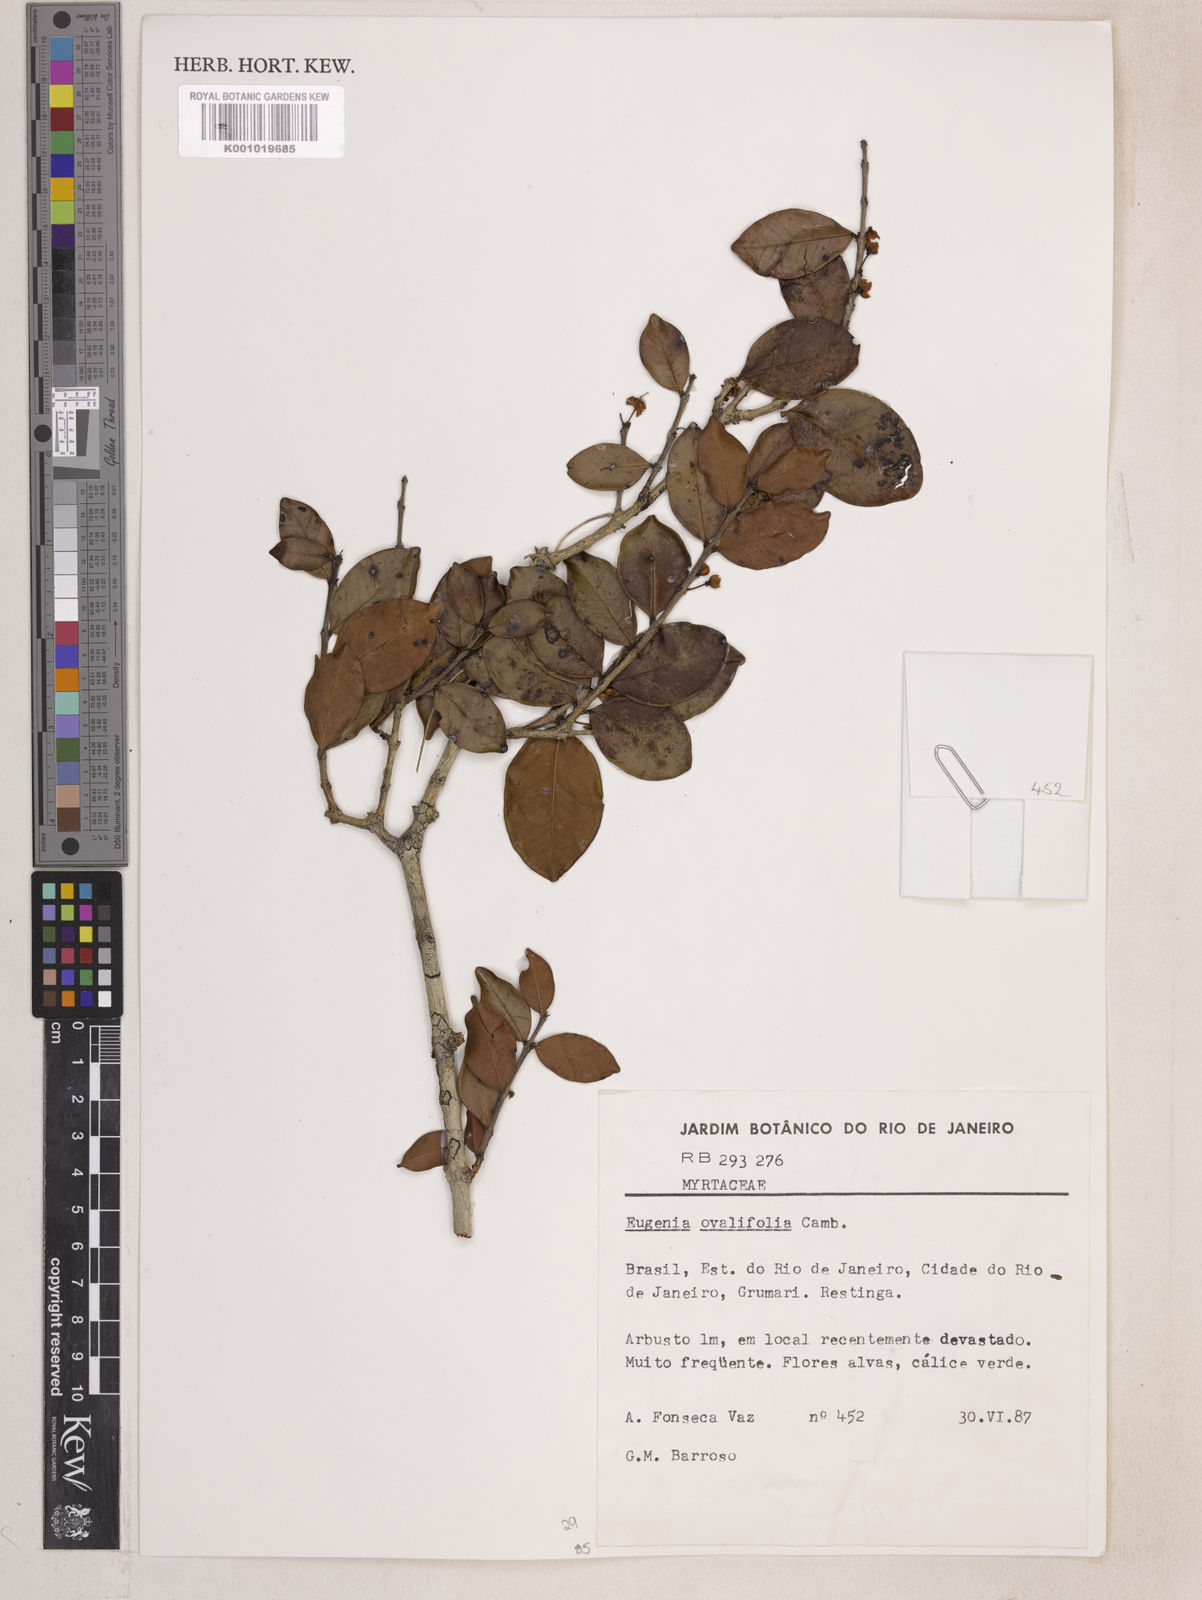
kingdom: Plantae
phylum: Tracheophyta
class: Magnoliopsida
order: Myrtales
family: Myrtaceae
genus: Eugenia
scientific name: Eugenia punicifolia
